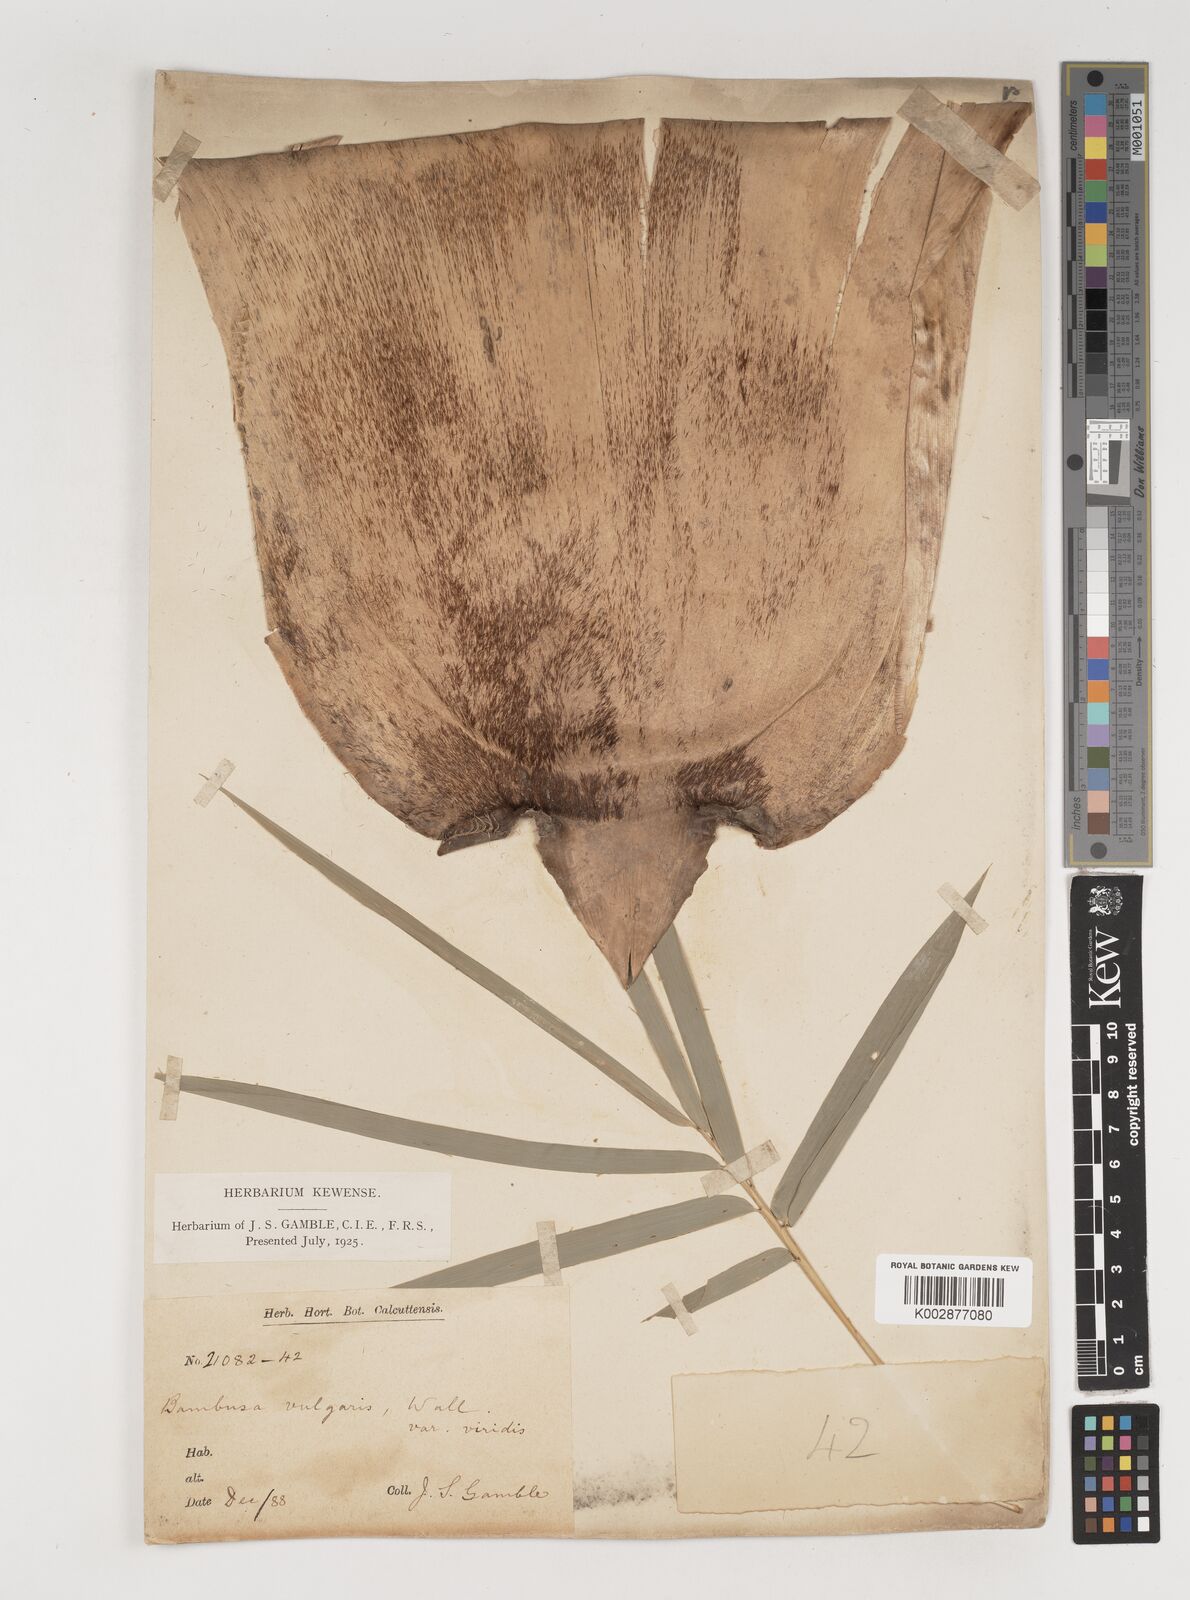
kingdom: Plantae
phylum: Tracheophyta
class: Liliopsida
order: Poales
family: Poaceae
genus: Bambusa
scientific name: Bambusa balcooa
